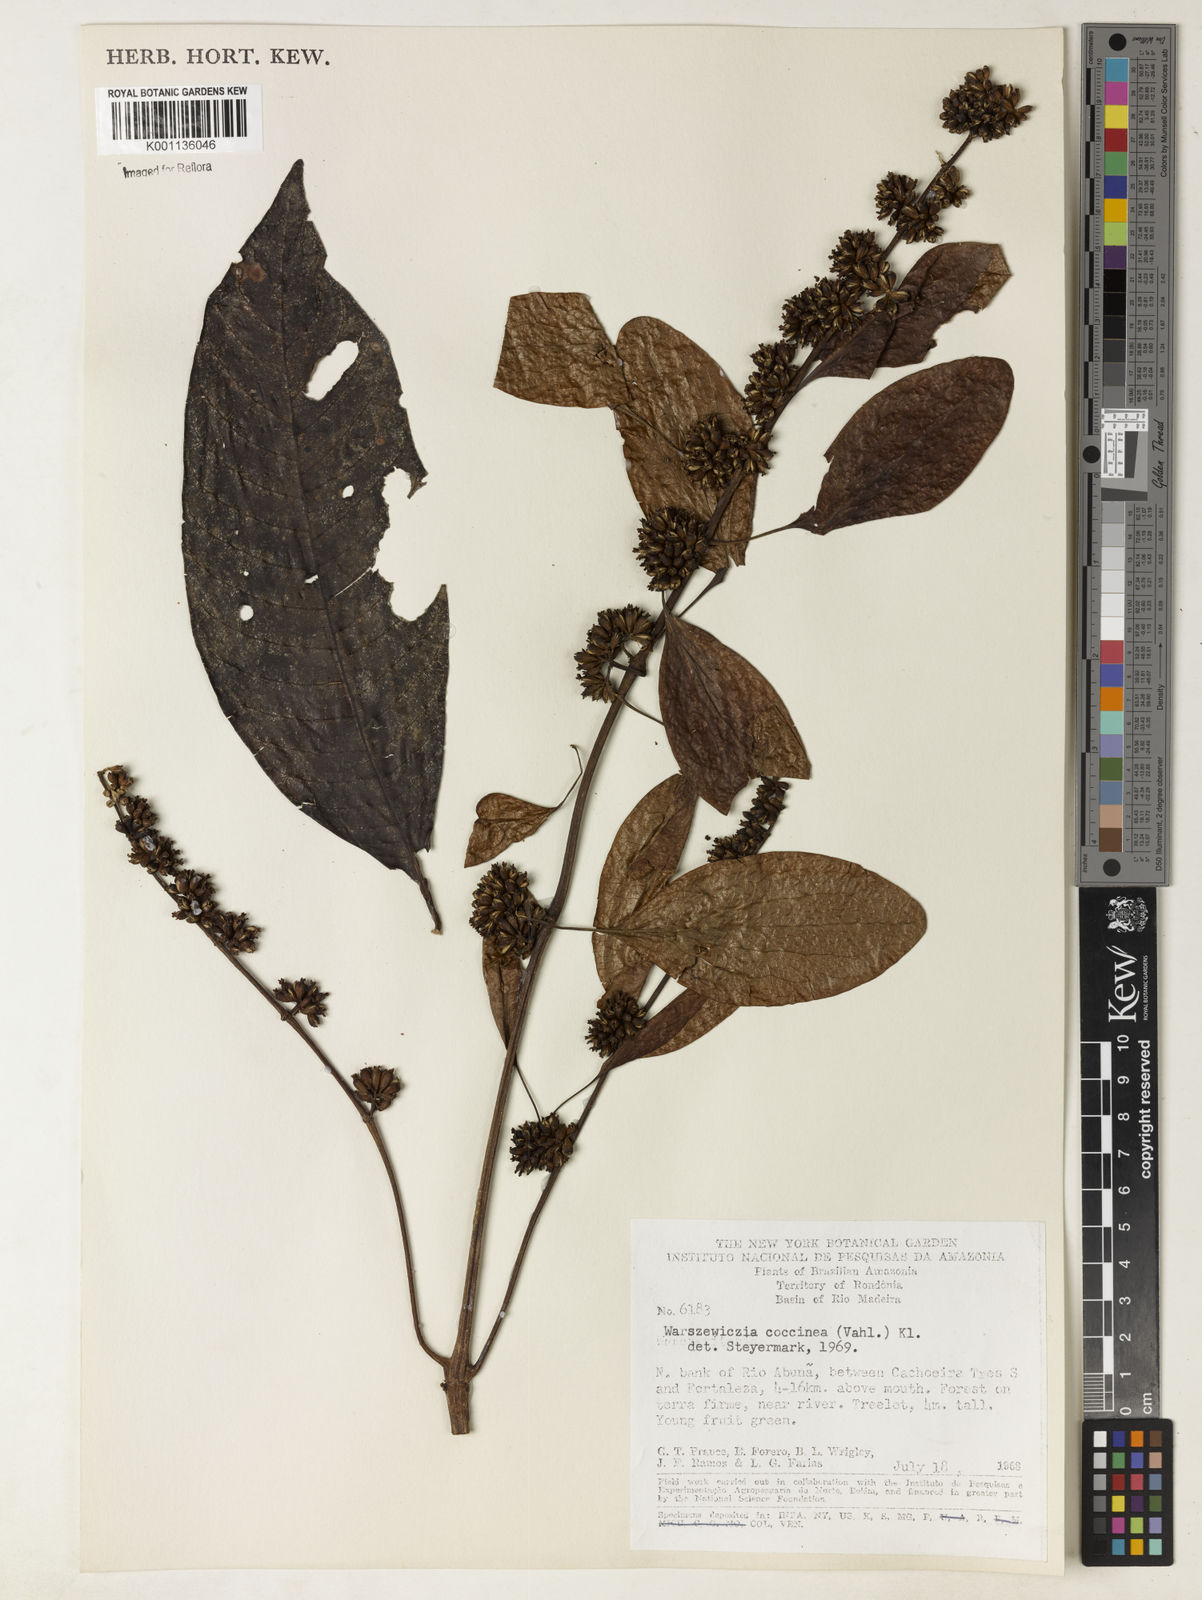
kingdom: Plantae
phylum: Tracheophyta
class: Magnoliopsida
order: Gentianales
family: Rubiaceae
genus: Warszewiczia
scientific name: Warszewiczia coccinea
